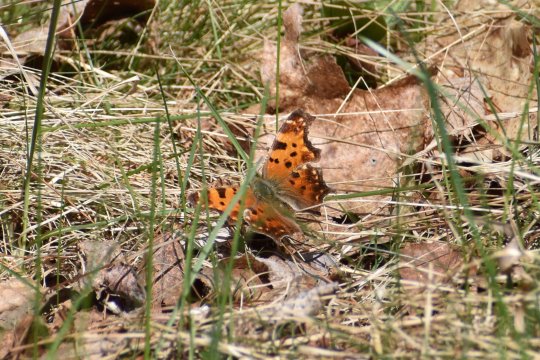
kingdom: Animalia
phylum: Arthropoda
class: Insecta
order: Lepidoptera
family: Nymphalidae
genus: Polygonia
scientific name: Polygonia comma
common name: Eastern Comma
